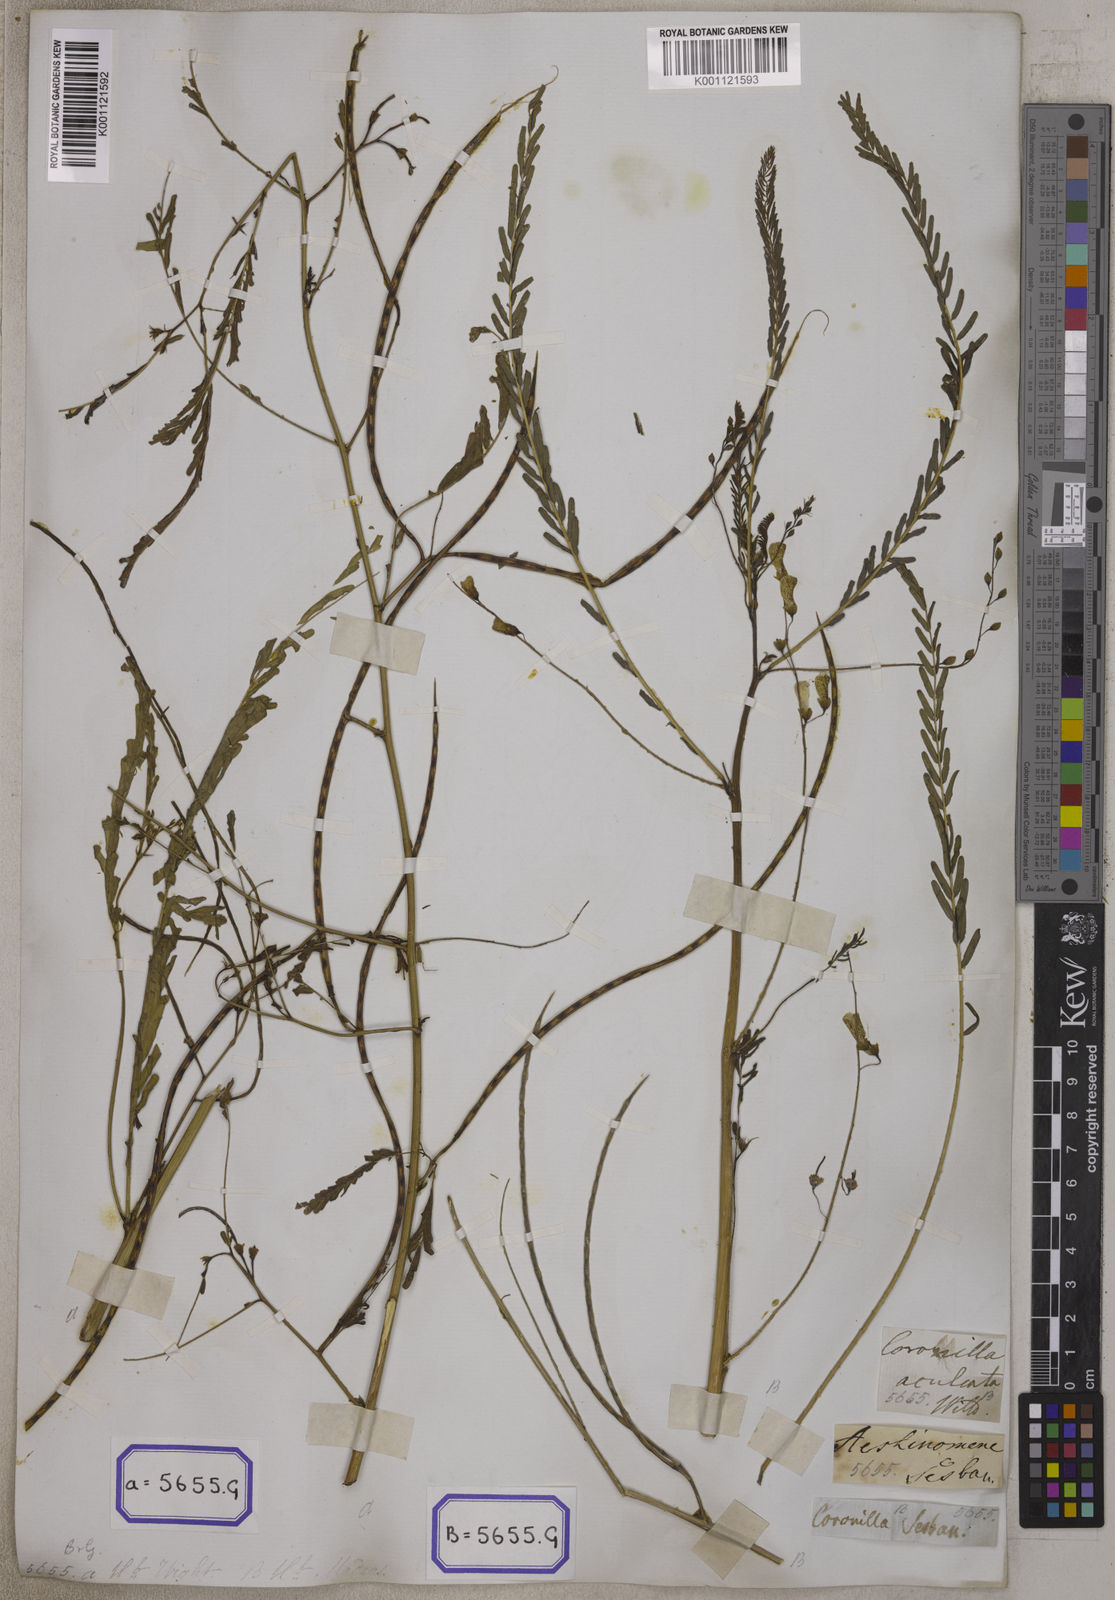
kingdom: Plantae
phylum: Tracheophyta
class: Magnoliopsida
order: Fabales
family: Fabaceae
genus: Sesbania
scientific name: Sesbania bispinosa
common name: Sesbania pea
